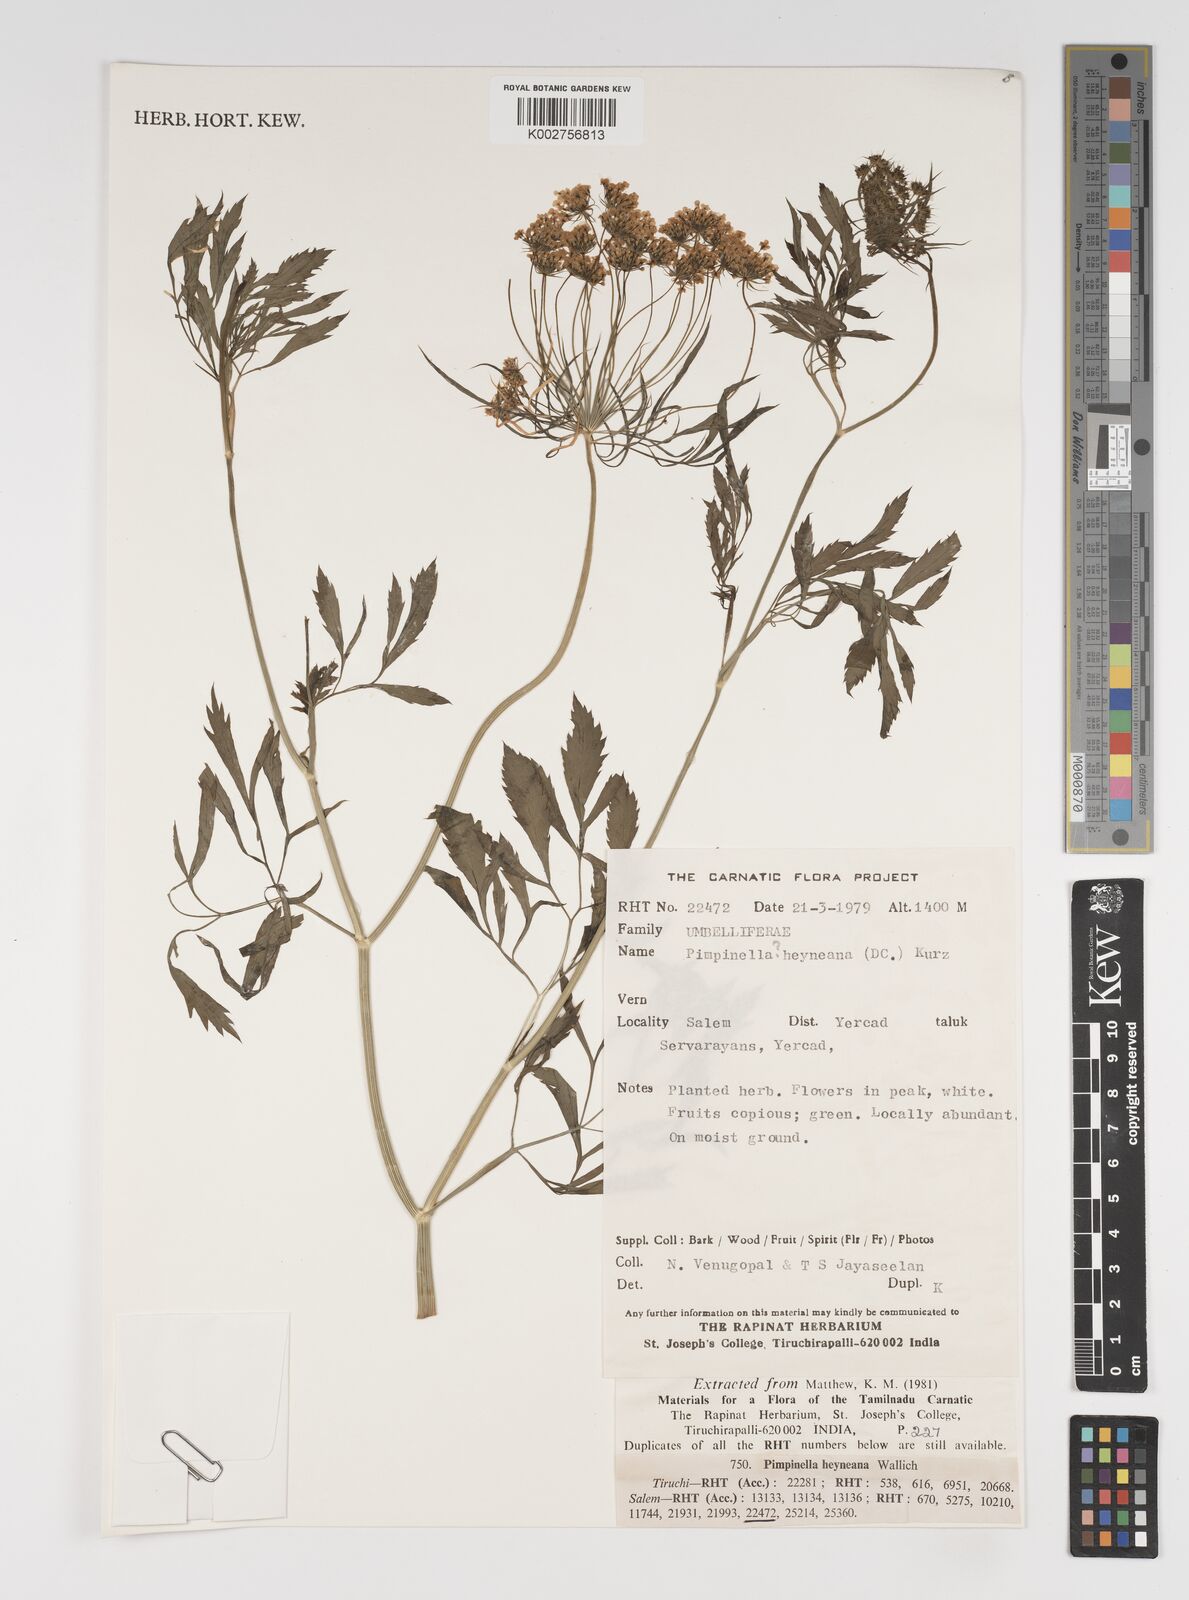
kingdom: Plantae
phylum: Tracheophyta
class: Magnoliopsida
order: Apiales
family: Apiaceae
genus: Pimpinella
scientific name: Pimpinella
